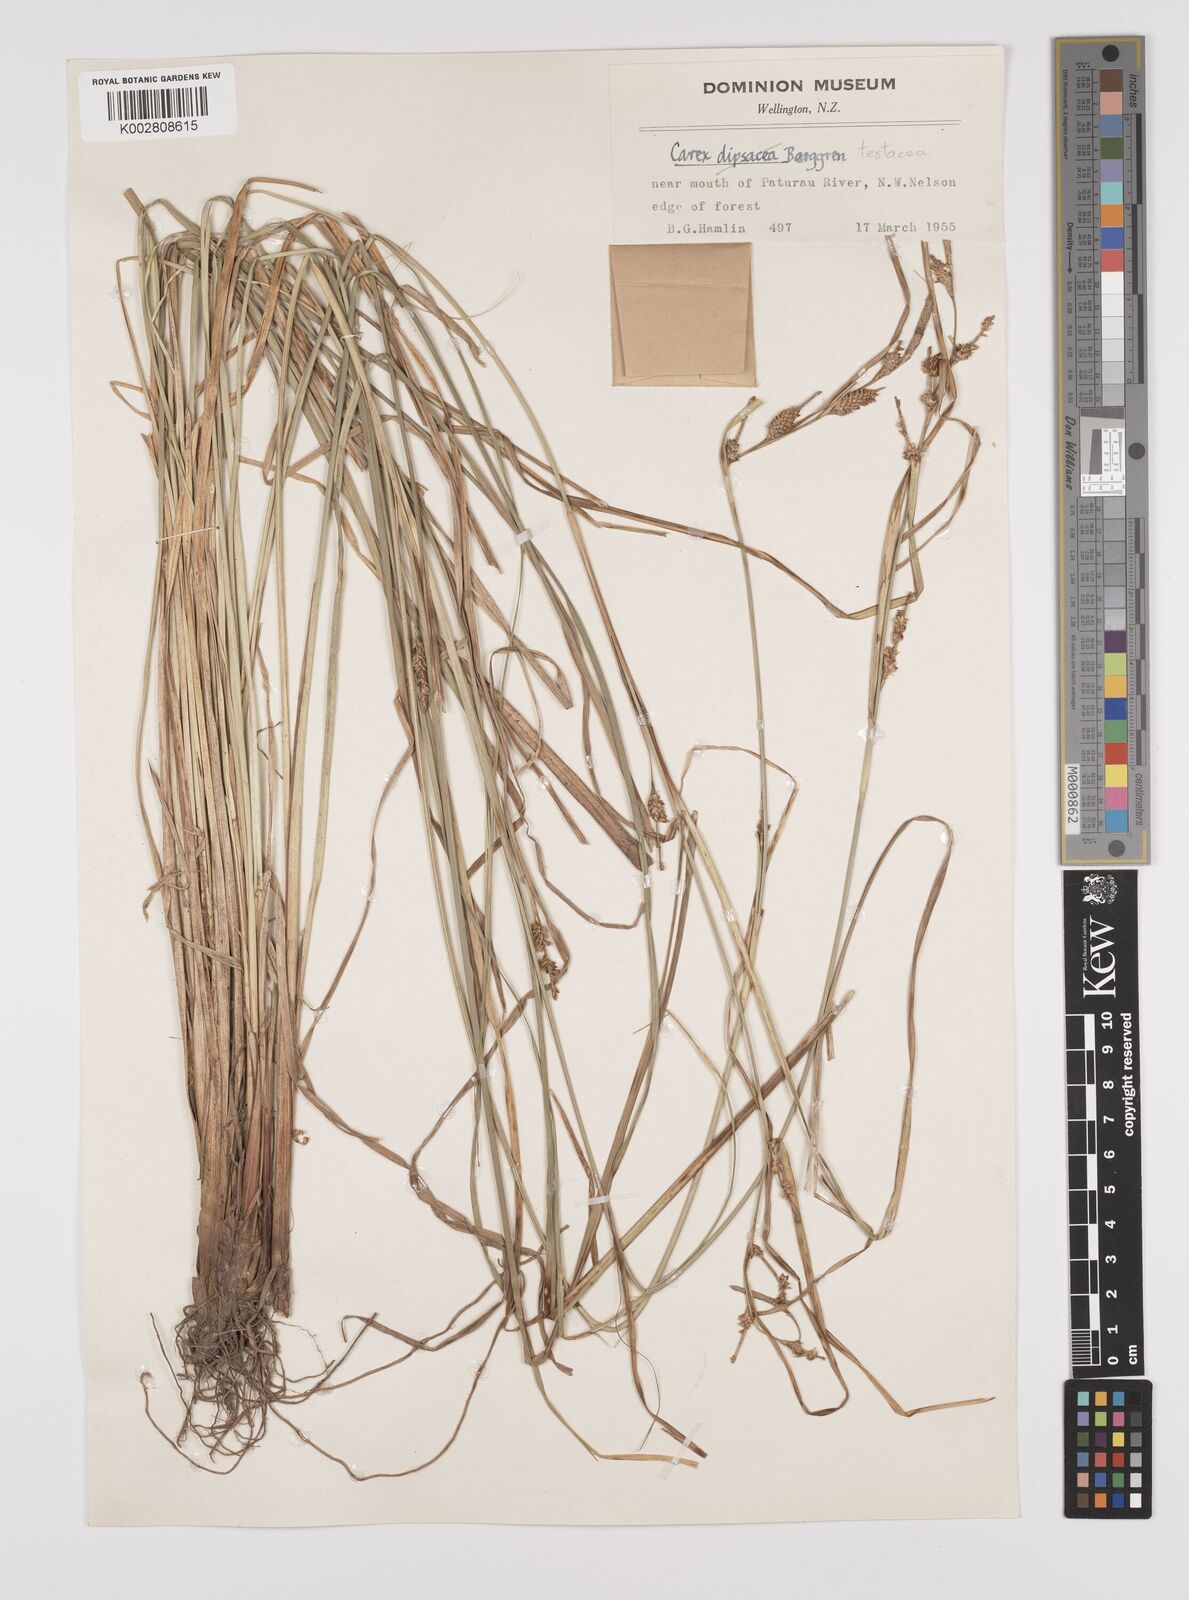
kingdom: Plantae
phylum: Tracheophyta
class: Liliopsida
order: Poales
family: Cyperaceae
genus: Carex
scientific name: Carex dipsacea
